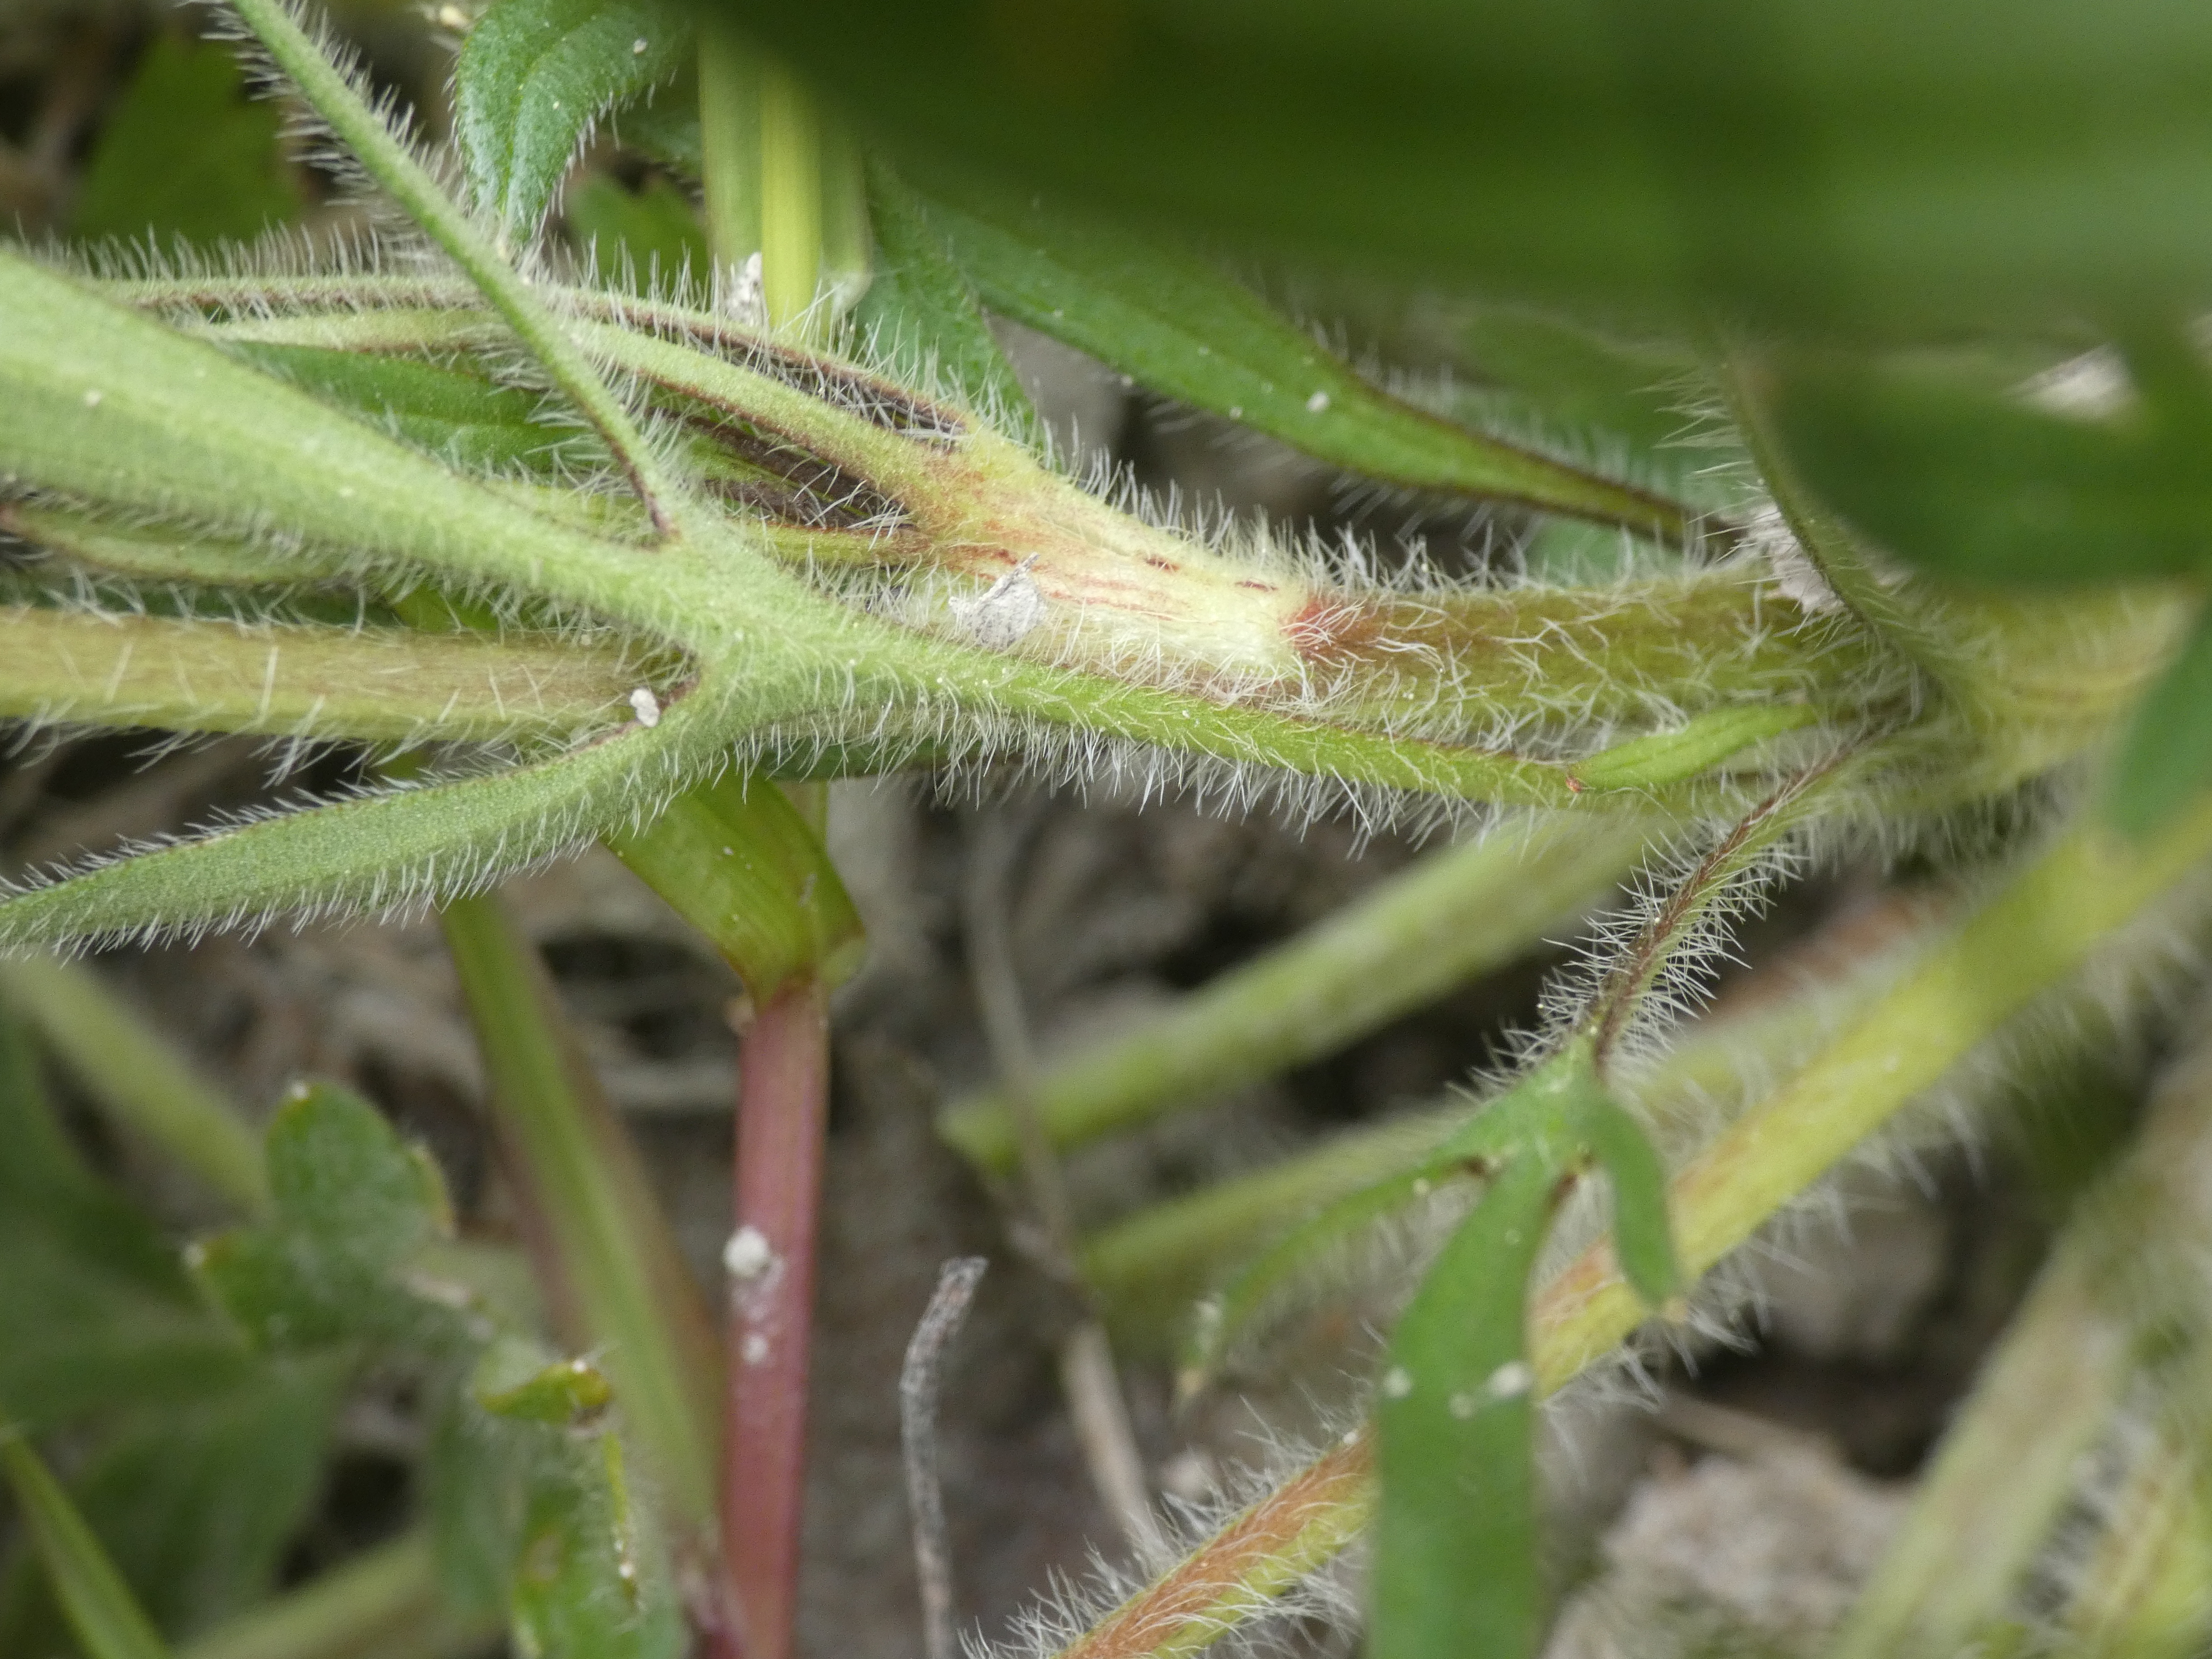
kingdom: Plantae
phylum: Tracheophyta
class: Magnoliopsida
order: Ranunculales
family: Ranunculaceae
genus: Ranunculus
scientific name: Ranunculus
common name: Ranunkelslægten
